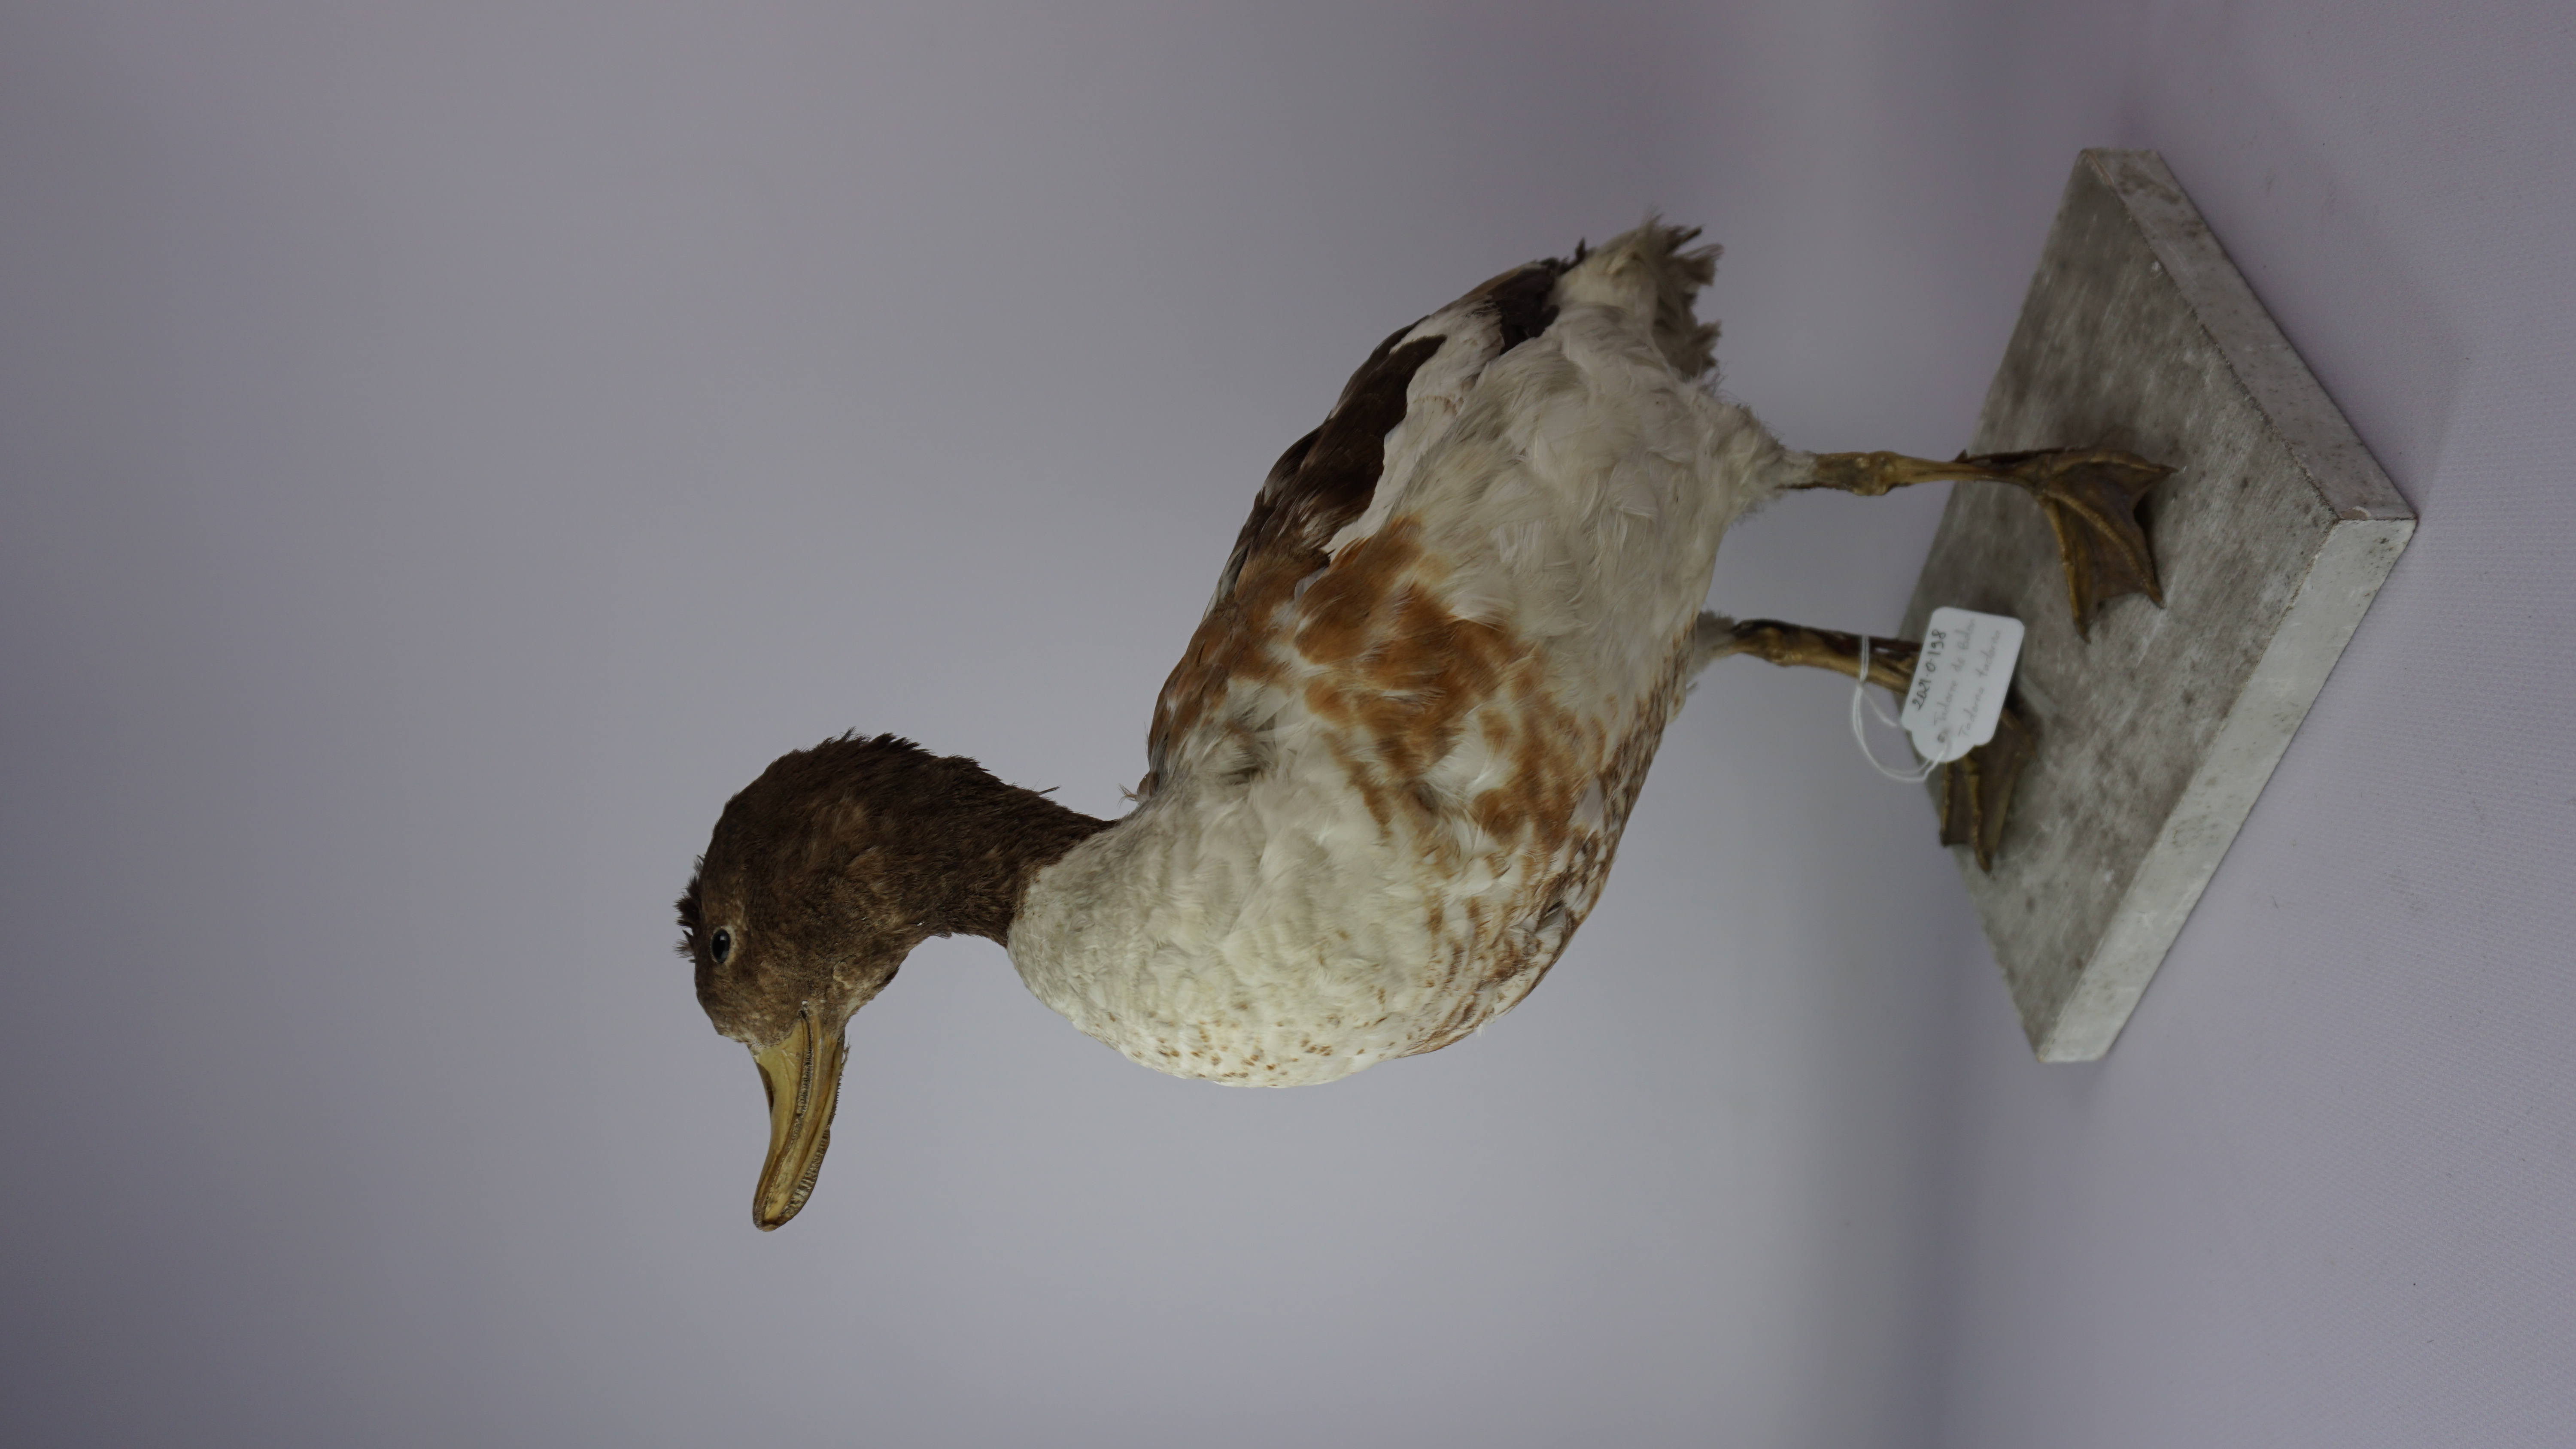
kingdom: Animalia
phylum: Chordata
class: Aves
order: Anseriformes
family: Anatidae
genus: Tadorna
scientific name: Tadorna tadorna
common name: Common shelduck
